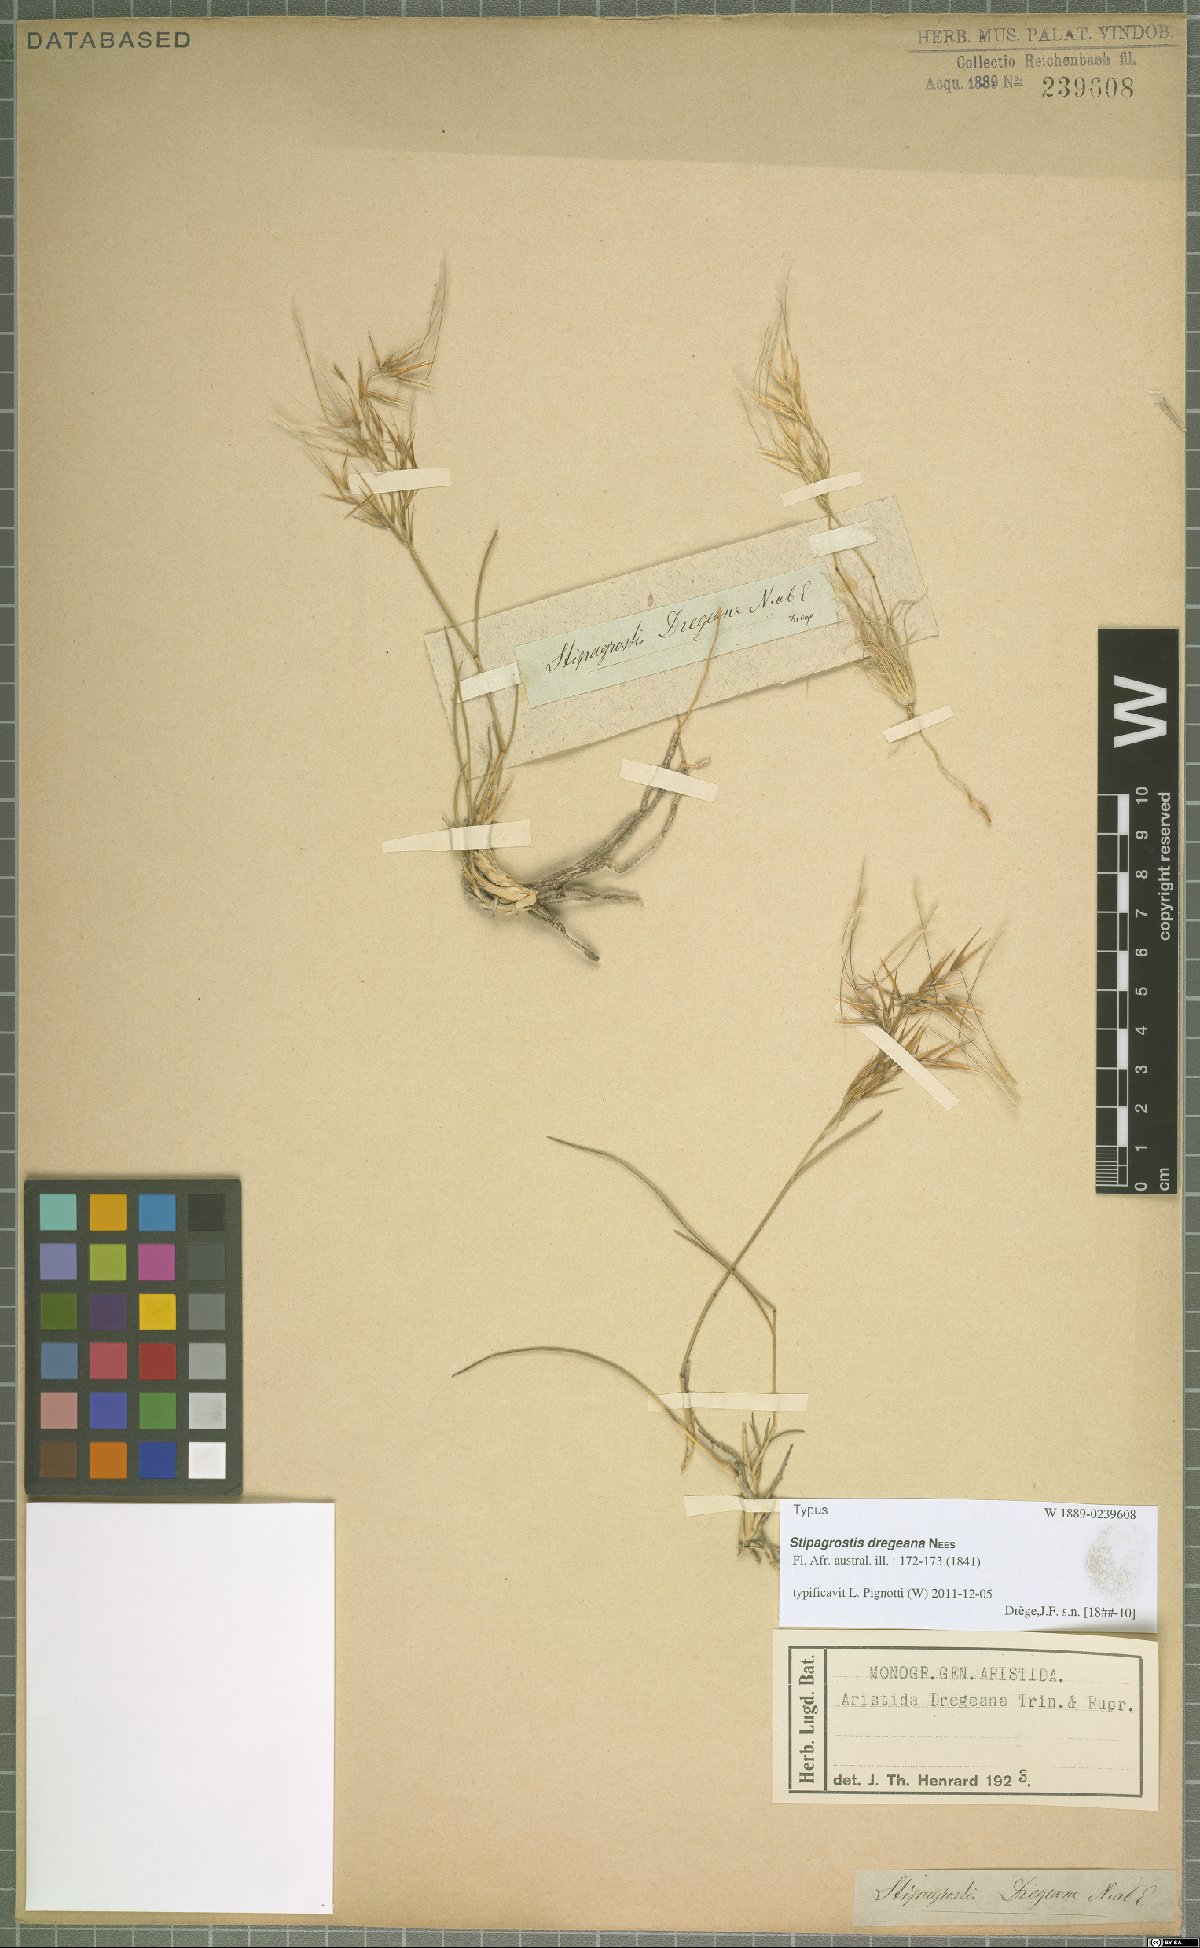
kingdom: Plantae
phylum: Tracheophyta
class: Liliopsida
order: Poales
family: Poaceae
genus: Stipagrostis
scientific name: Stipagrostis dregeana
